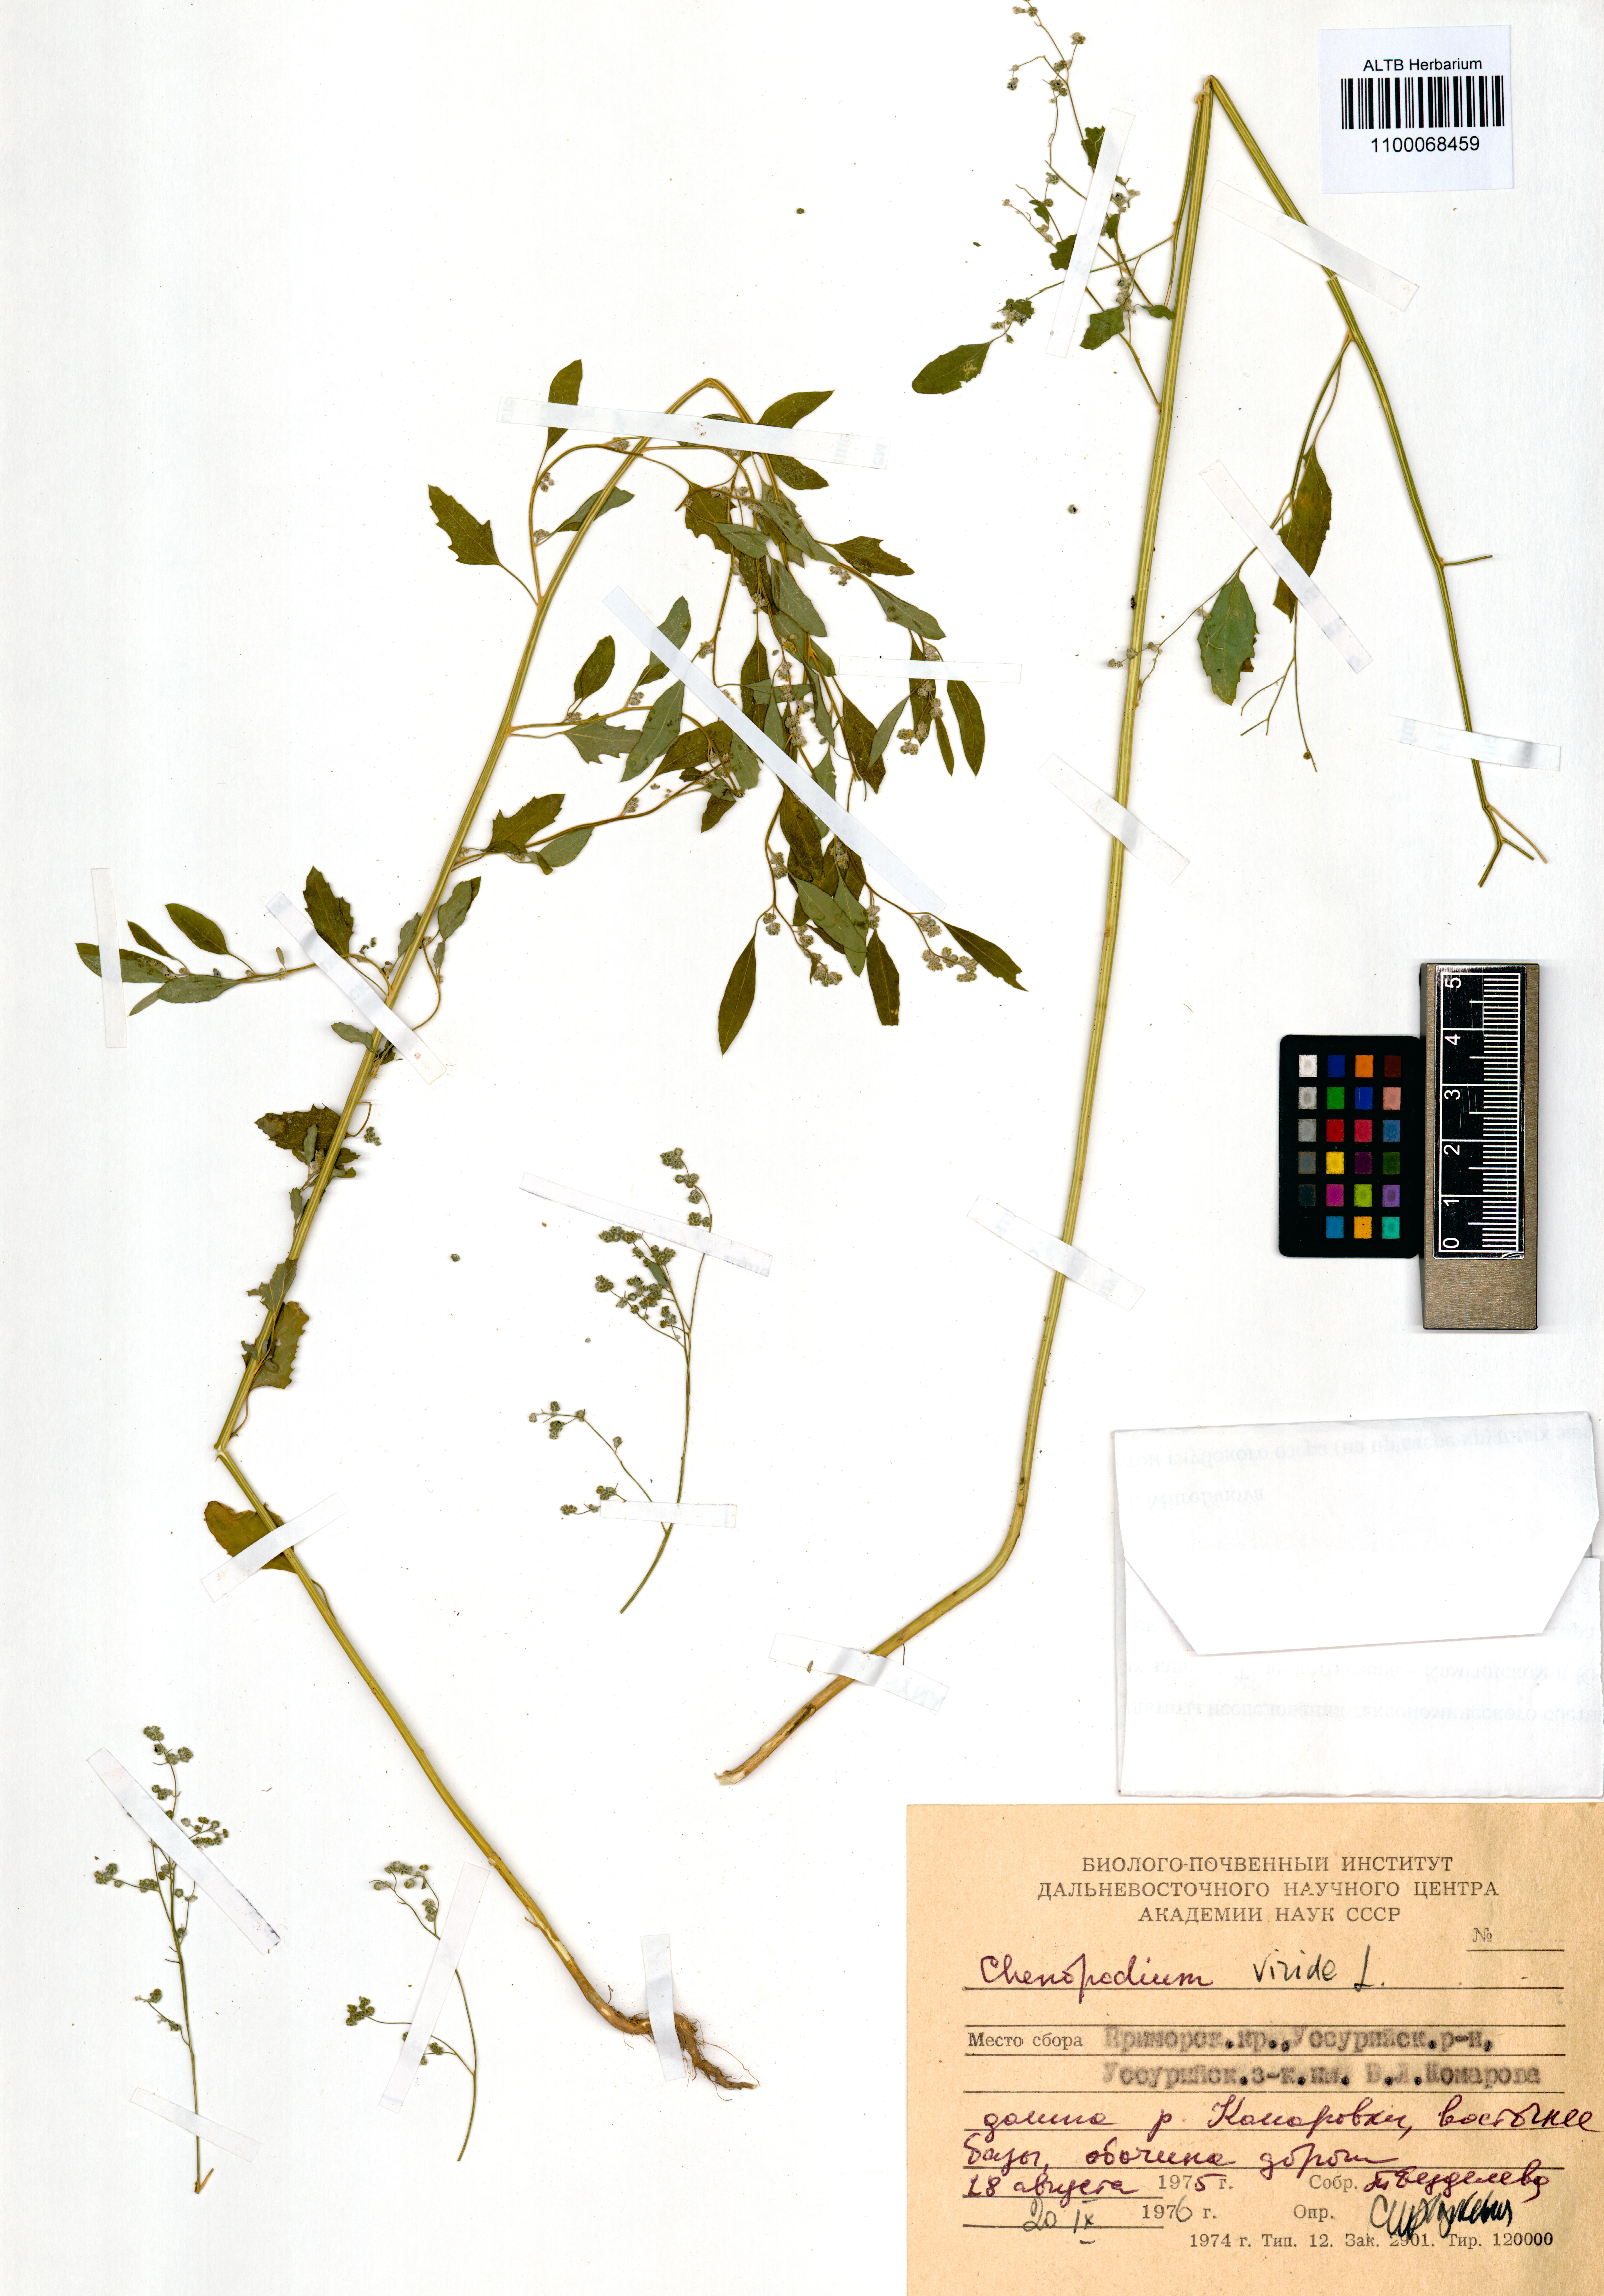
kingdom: Plantae
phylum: Tracheophyta
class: Magnoliopsida
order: Caryophyllales
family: Amaranthaceae
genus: Chenopodium
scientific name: Chenopodium album
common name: Fat-hen
